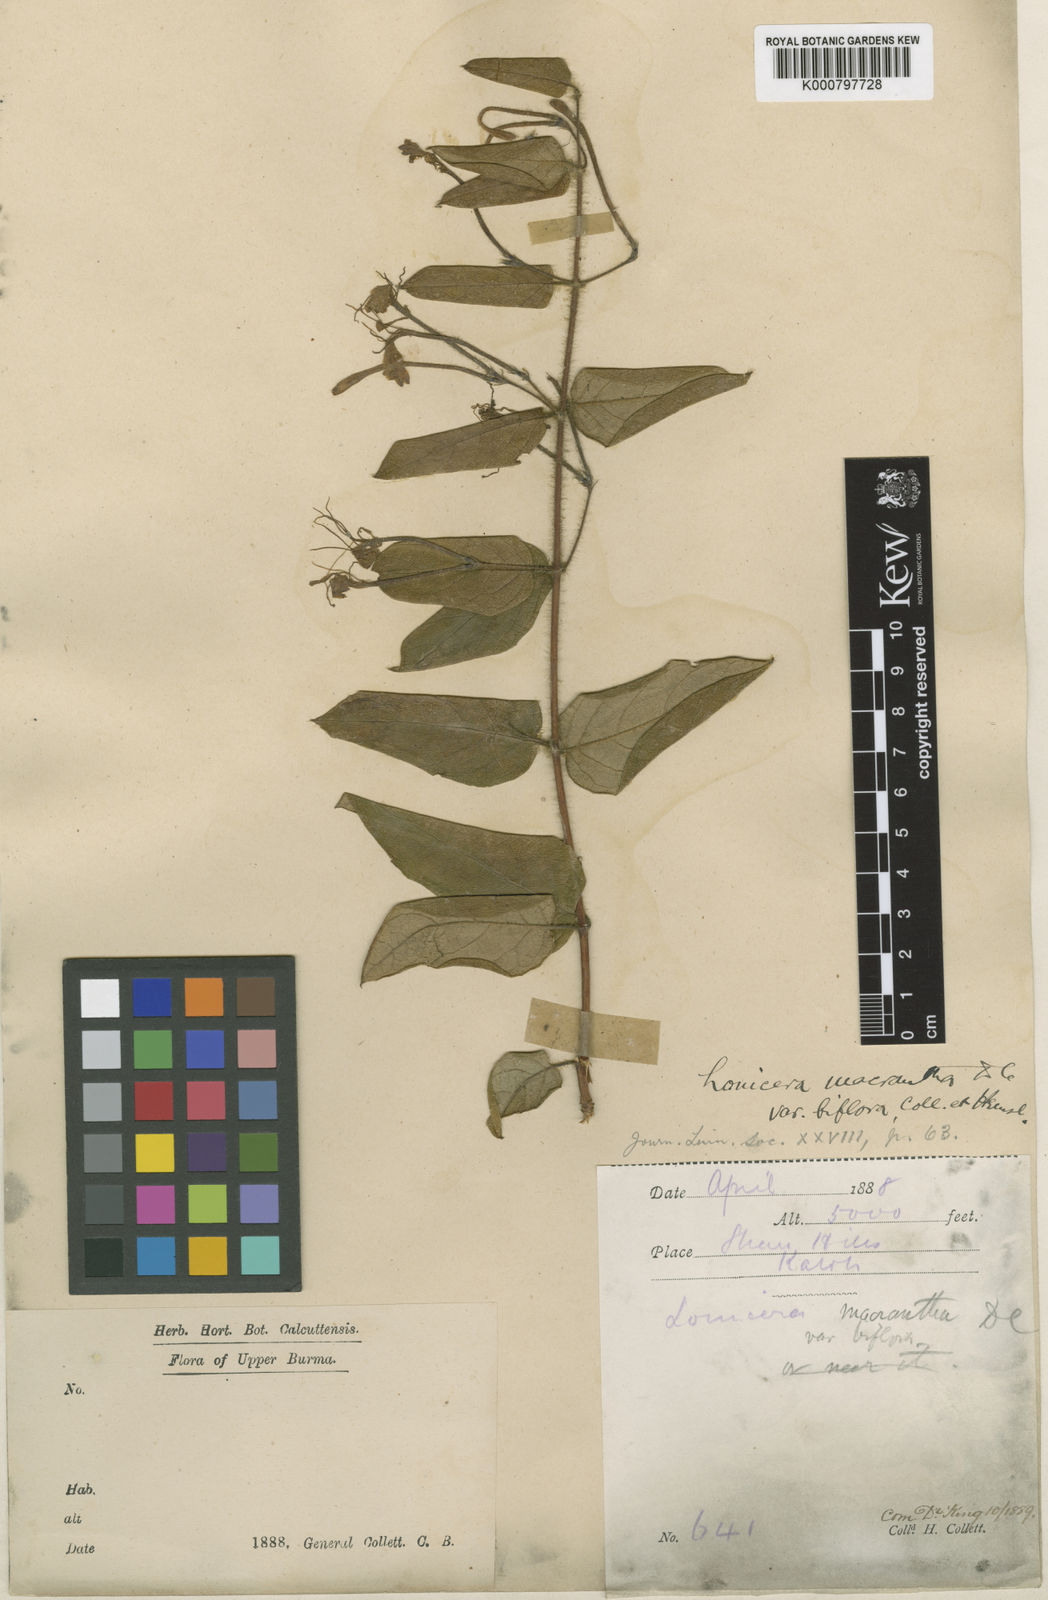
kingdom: Plantae
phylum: Tracheophyta
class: Magnoliopsida
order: Dipsacales
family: Caprifoliaceae
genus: Lonicera
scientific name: Lonicera
